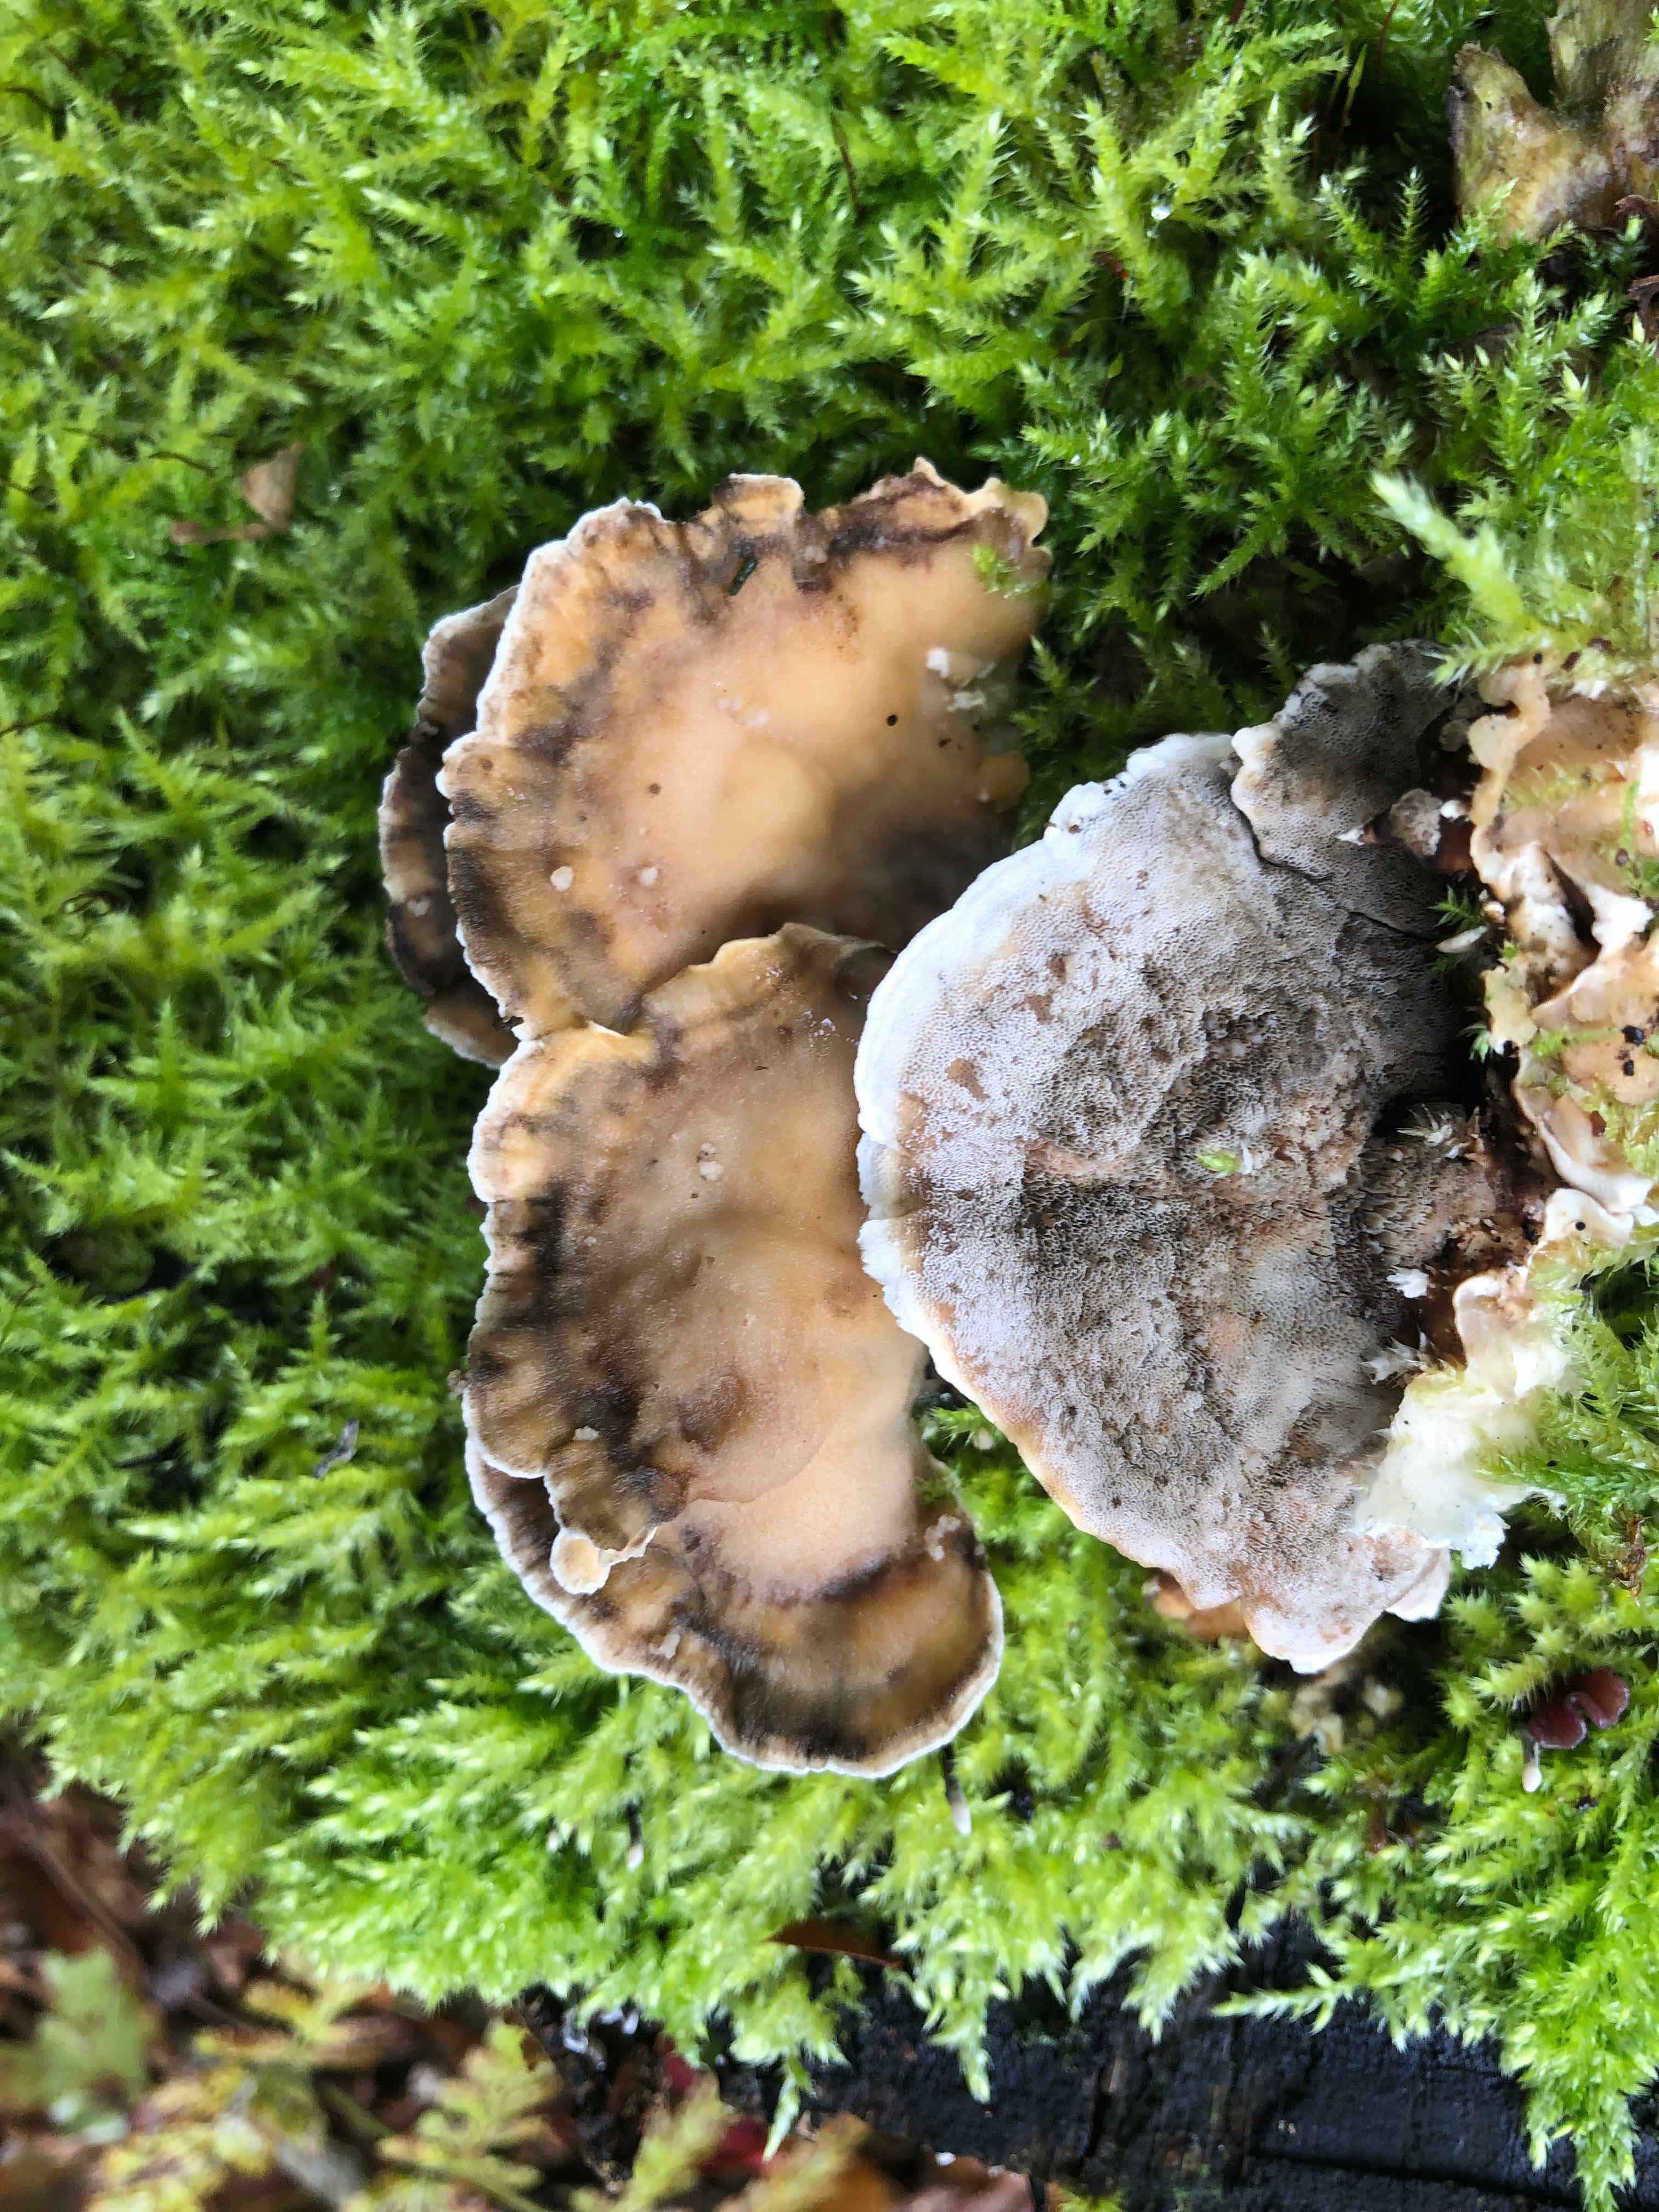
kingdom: Fungi
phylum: Basidiomycota
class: Agaricomycetes
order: Polyporales
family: Phanerochaetaceae
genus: Bjerkandera
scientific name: Bjerkandera adusta
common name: sveden sodporesvamp
